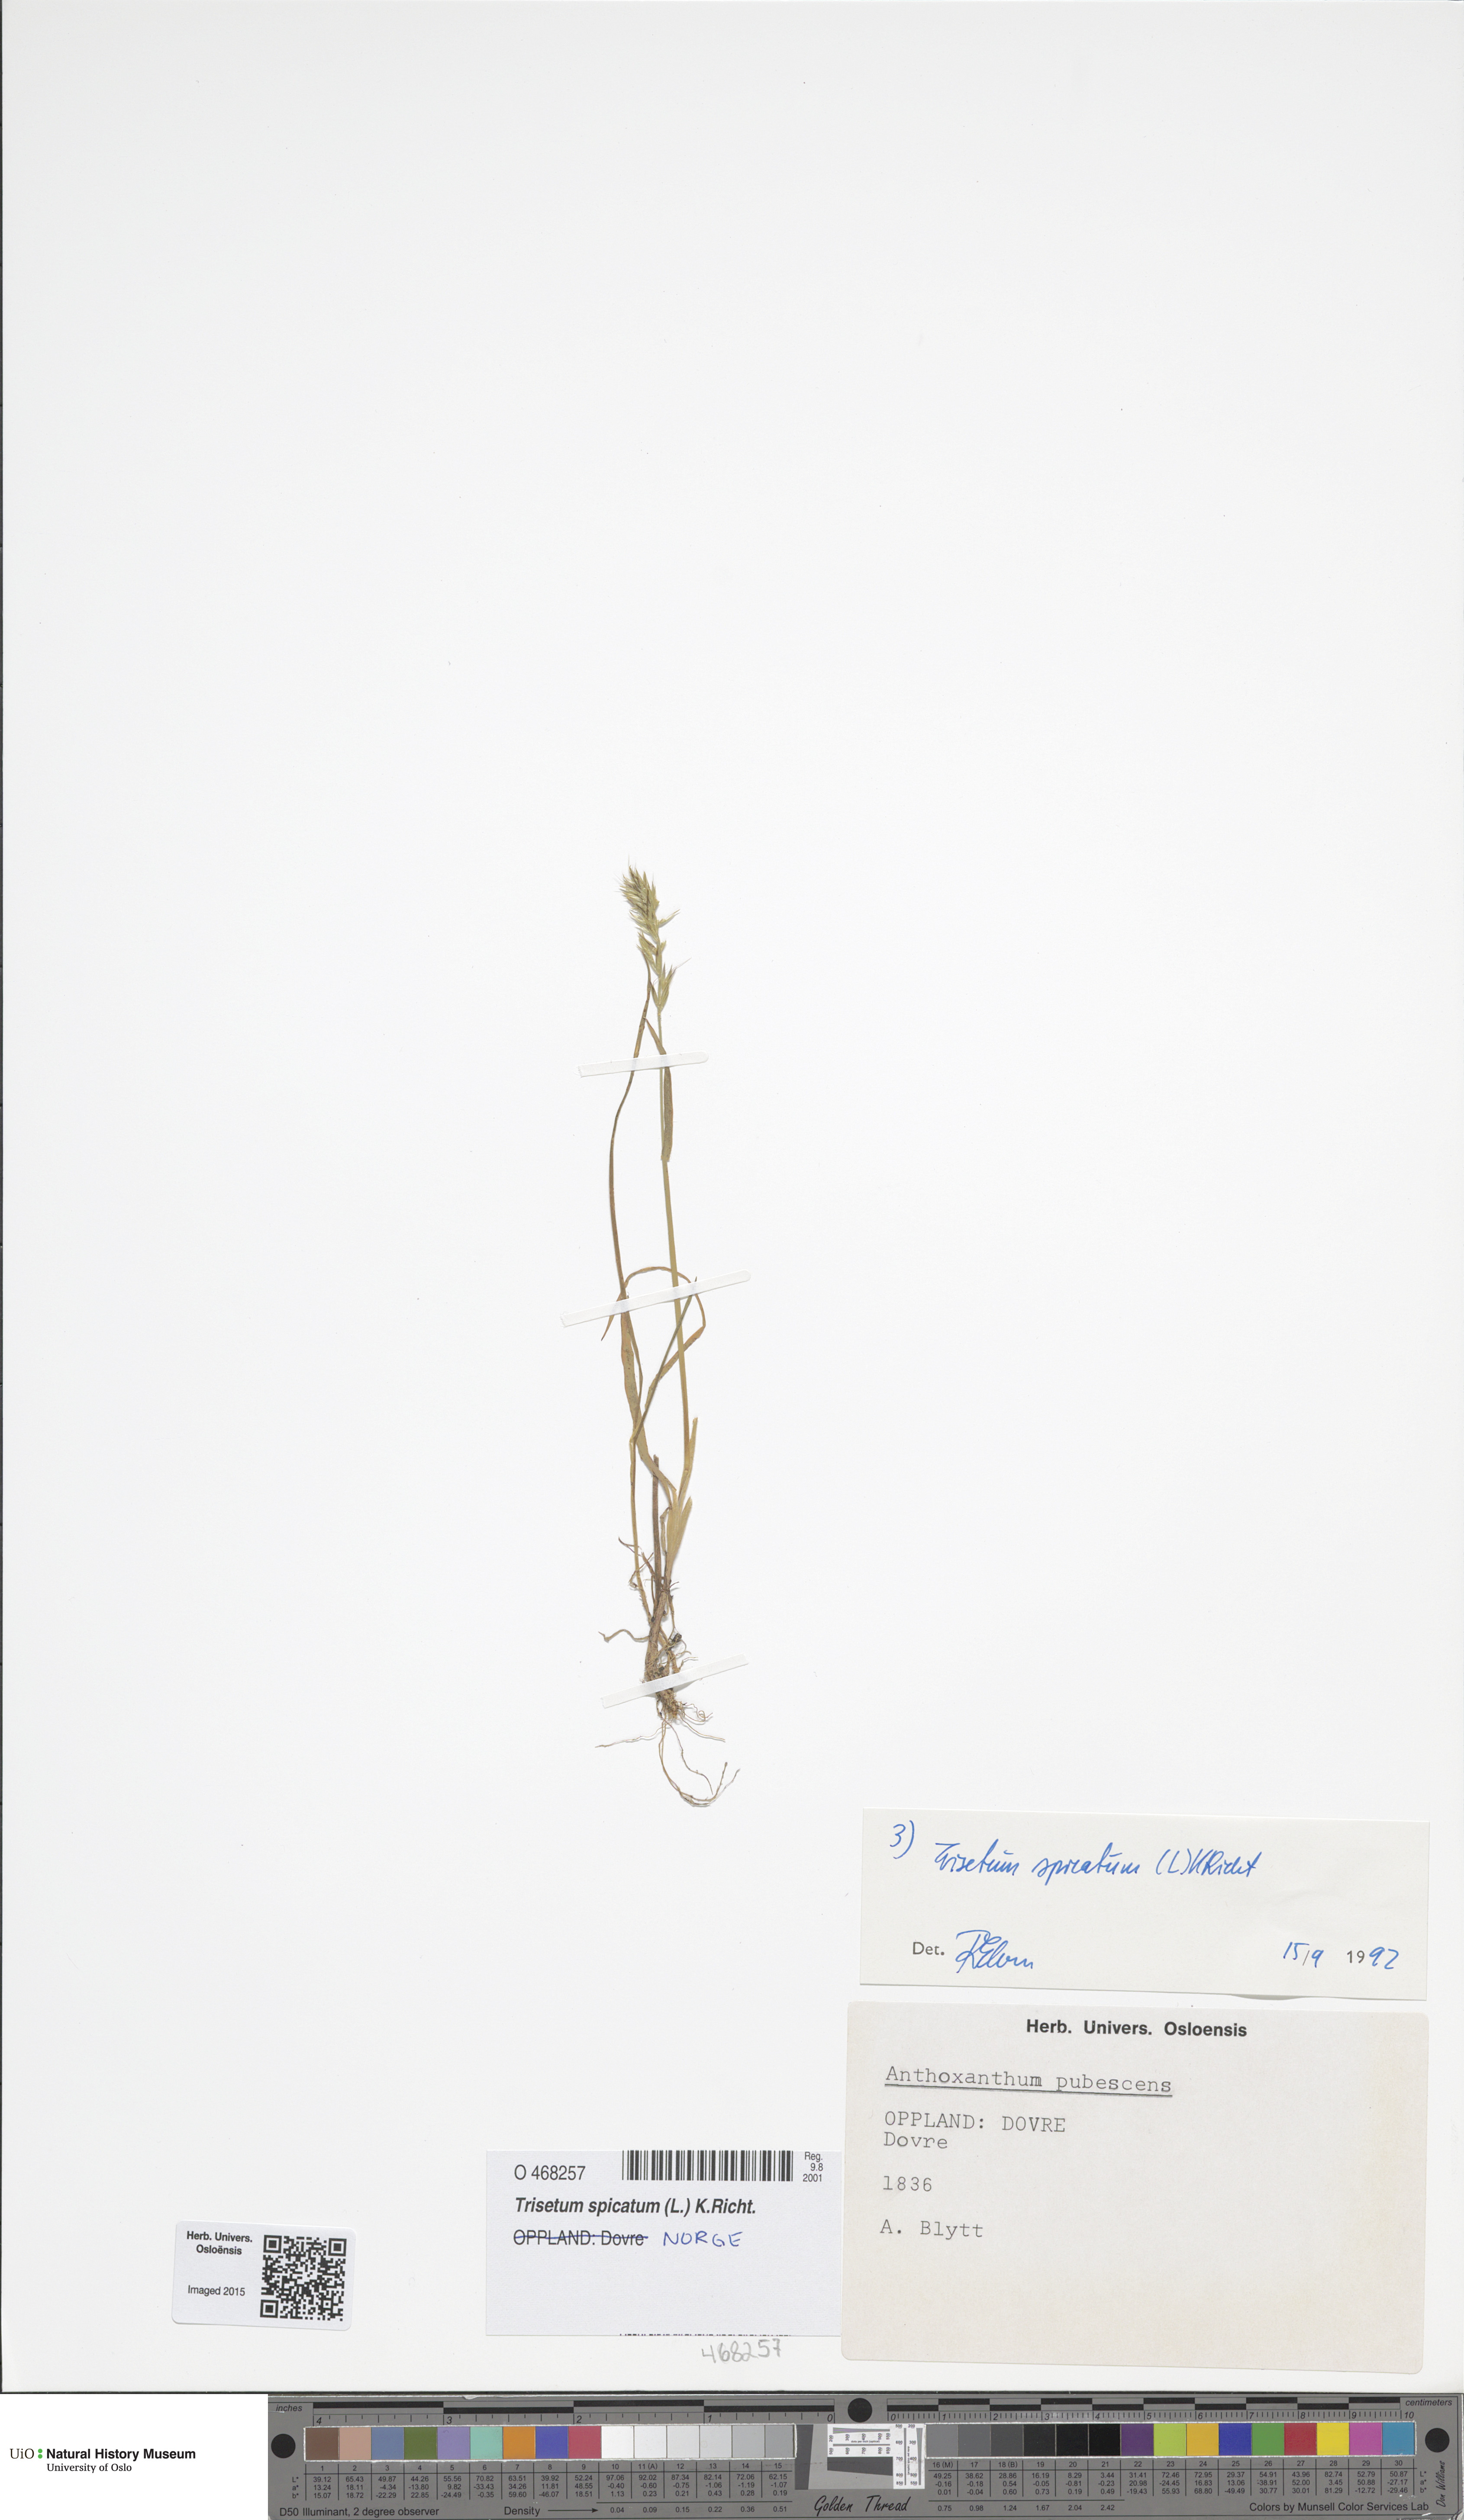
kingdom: Plantae
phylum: Tracheophyta
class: Liliopsida
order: Poales
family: Poaceae
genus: Koeleria
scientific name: Koeleria spicata
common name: Mountain trisetum
